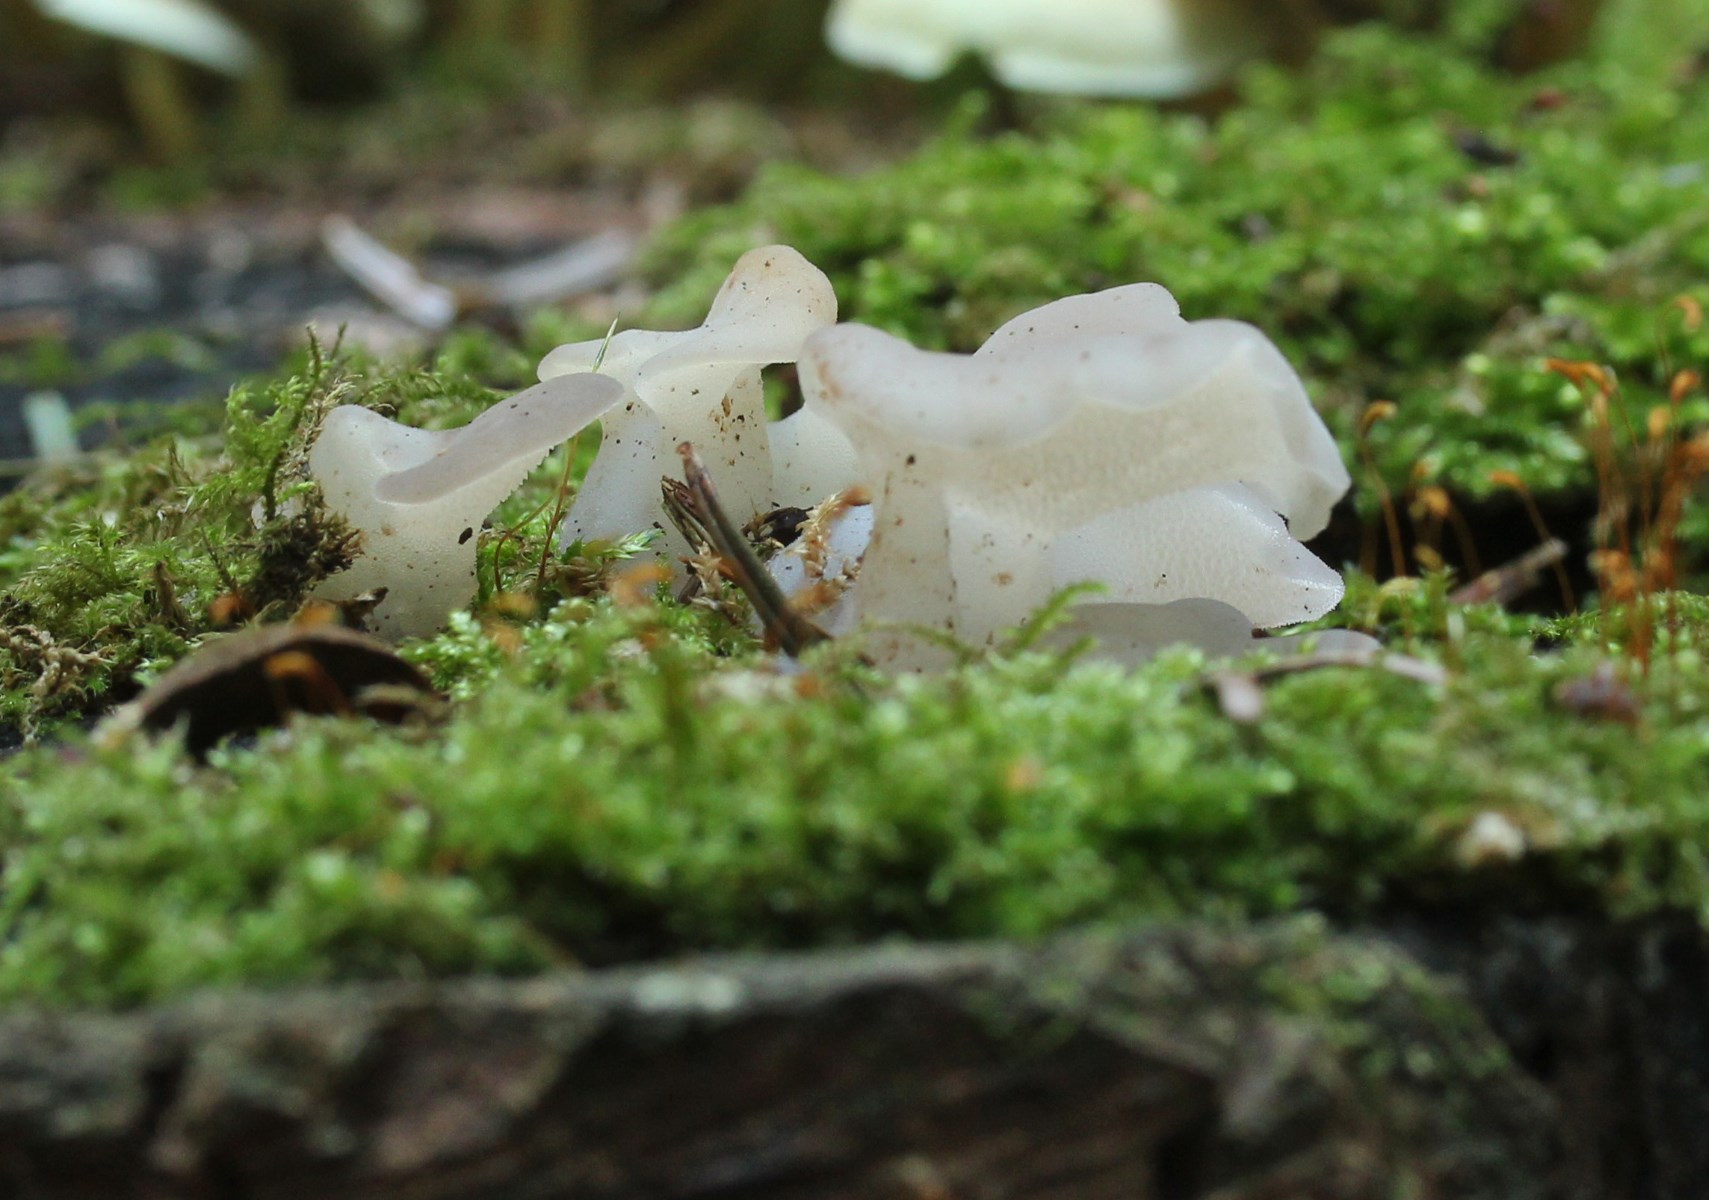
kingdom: Fungi
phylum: Basidiomycota
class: Agaricomycetes
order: Auriculariales
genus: Pseudohydnum
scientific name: Pseudohydnum gelatinosum
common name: bævretand
